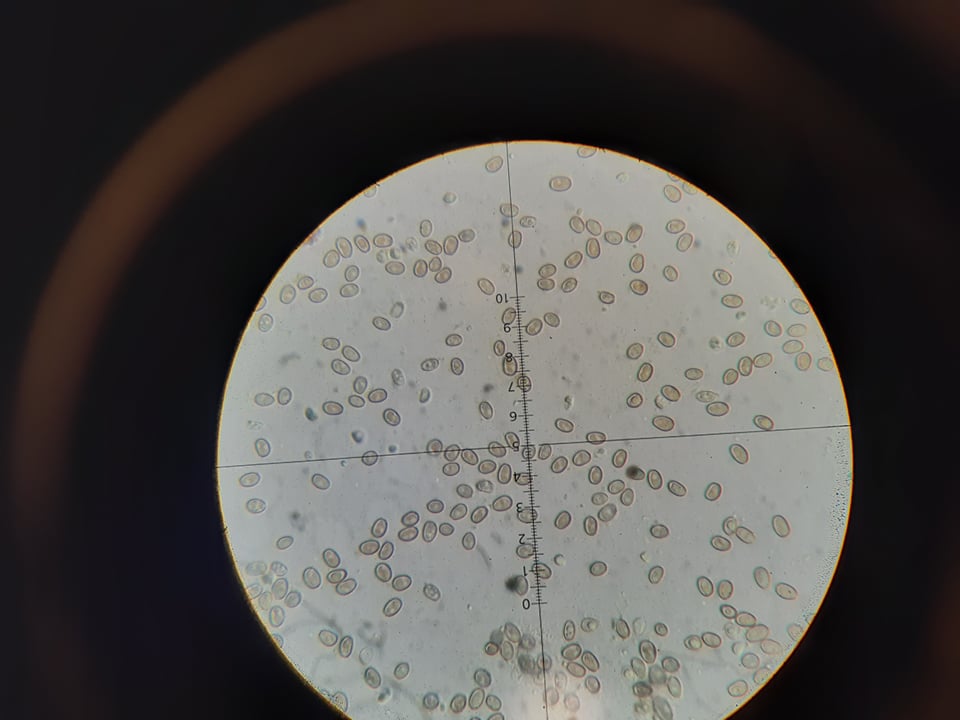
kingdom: Fungi
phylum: Basidiomycota
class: Agaricomycetes
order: Agaricales
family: Strophariaceae
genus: Pholiota
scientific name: Pholiota gummosa
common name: grøngul skælhat
